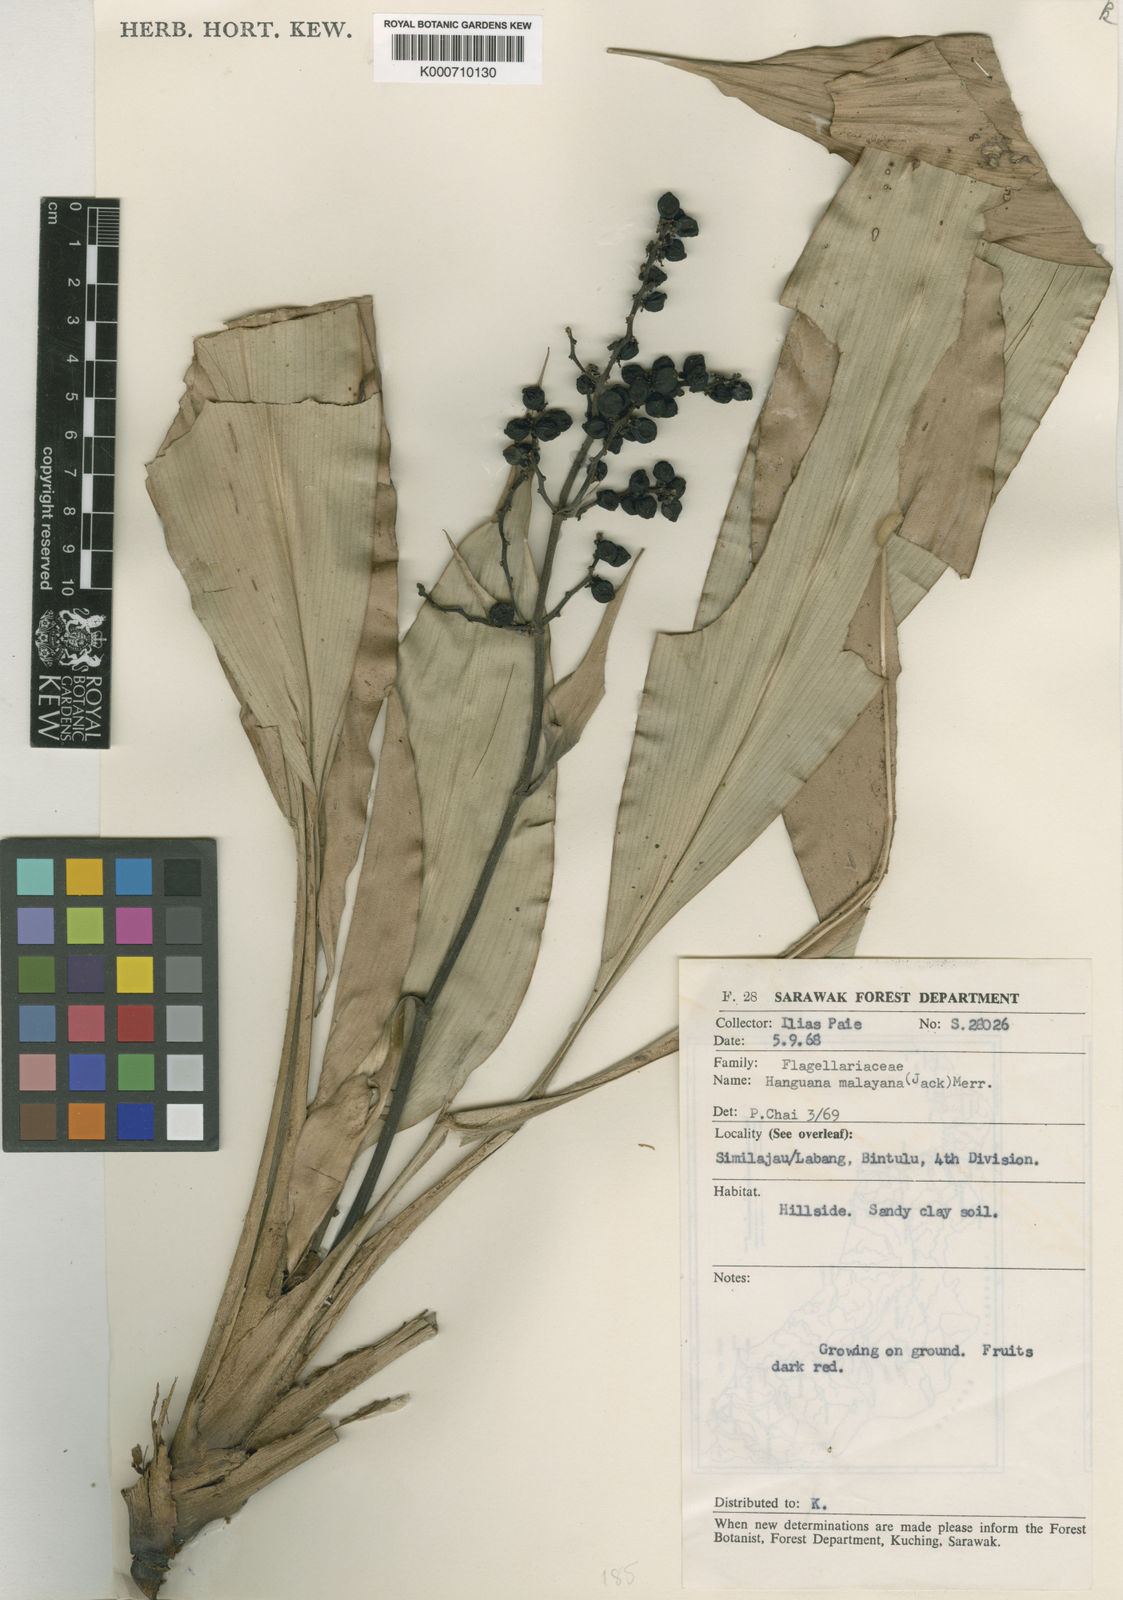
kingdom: Plantae
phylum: Tracheophyta
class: Liliopsida
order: Commelinales
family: Hanguanaceae
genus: Hanguana
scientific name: Hanguana malayana
